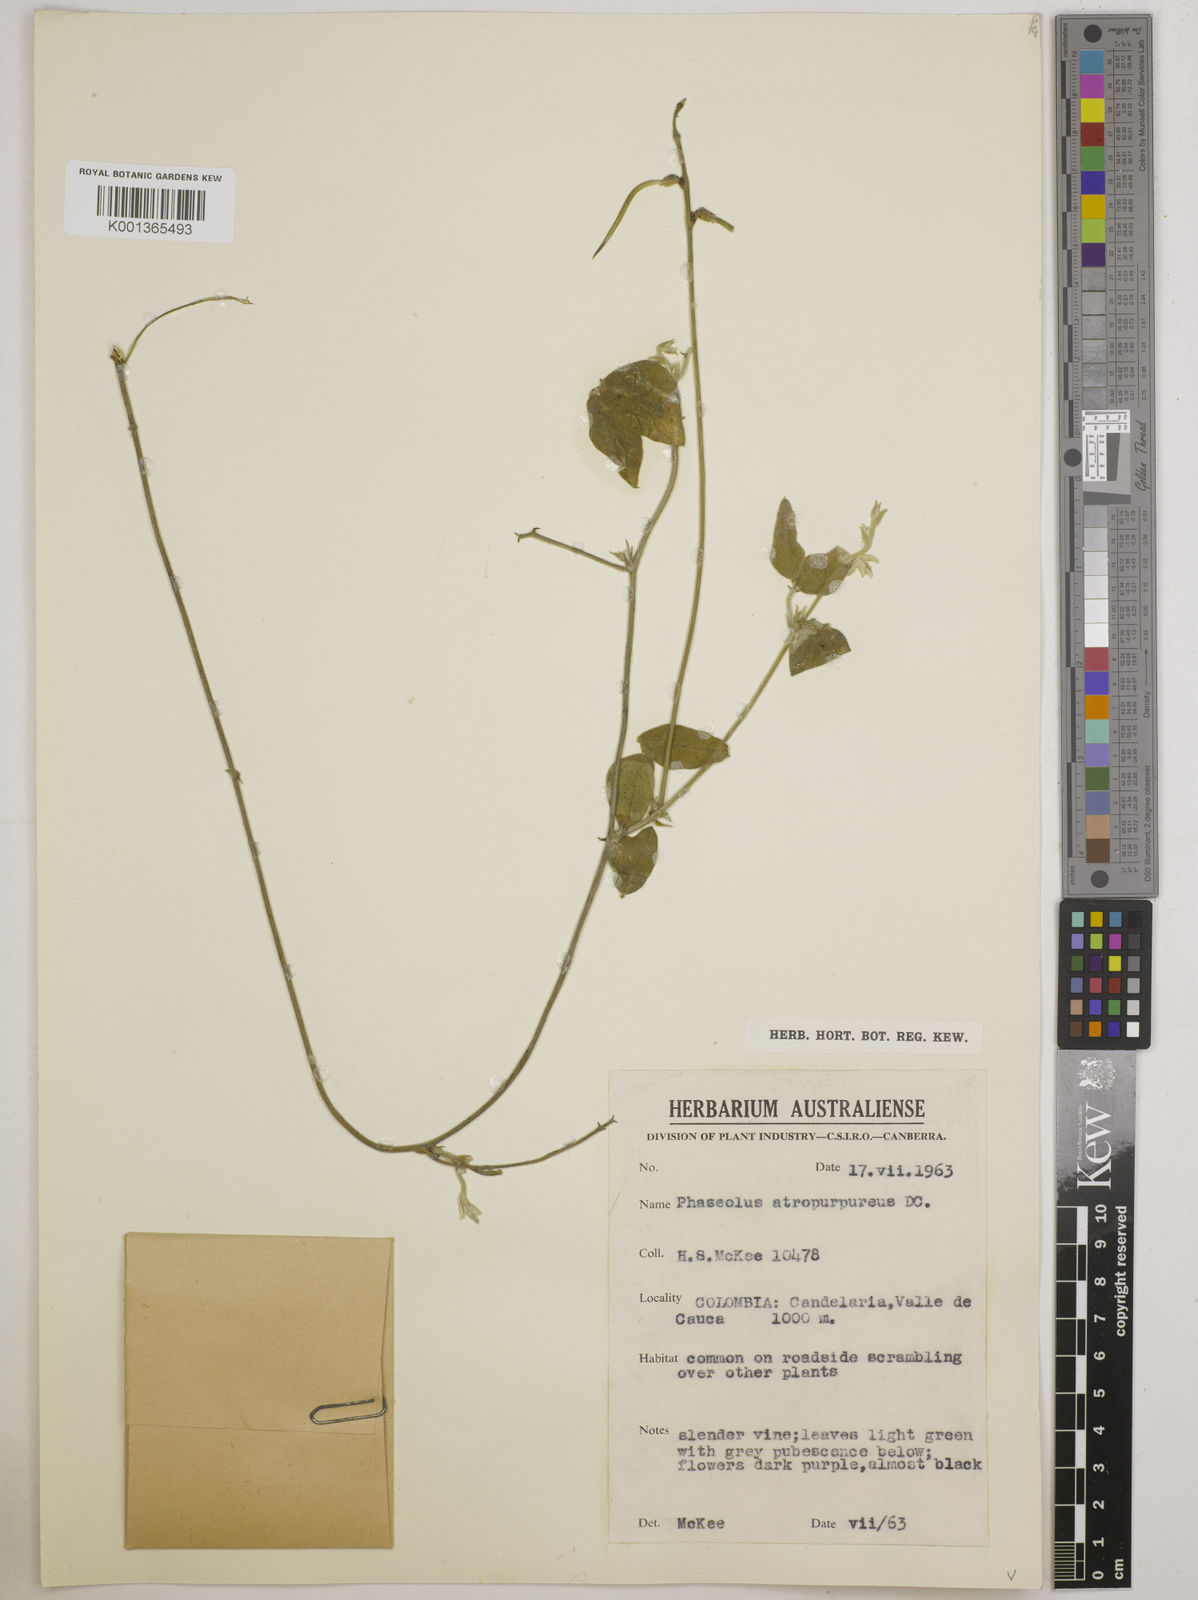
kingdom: Plantae
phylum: Tracheophyta
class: Magnoliopsida
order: Fabales
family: Fabaceae
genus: Macroptilium
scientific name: Macroptilium atropurpureum
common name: Purple bushbean
